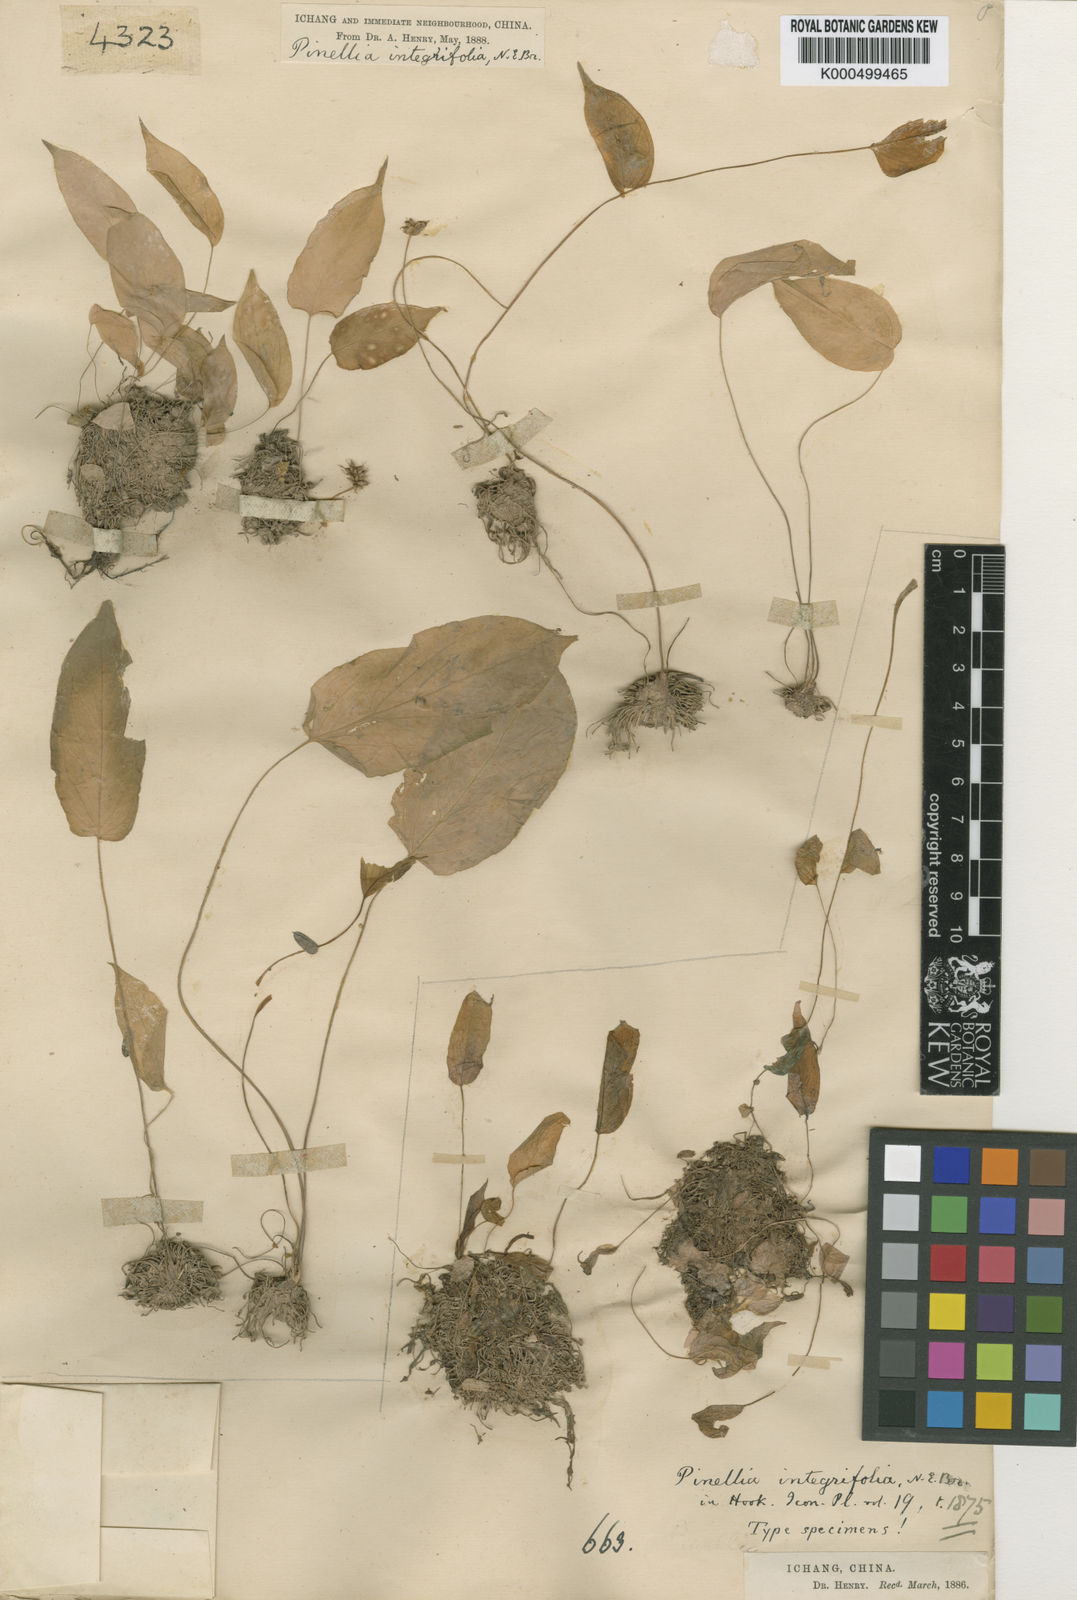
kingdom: Plantae
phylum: Tracheophyta
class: Liliopsida
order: Alismatales
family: Araceae
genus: Pinellia
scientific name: Pinellia integrifolia
